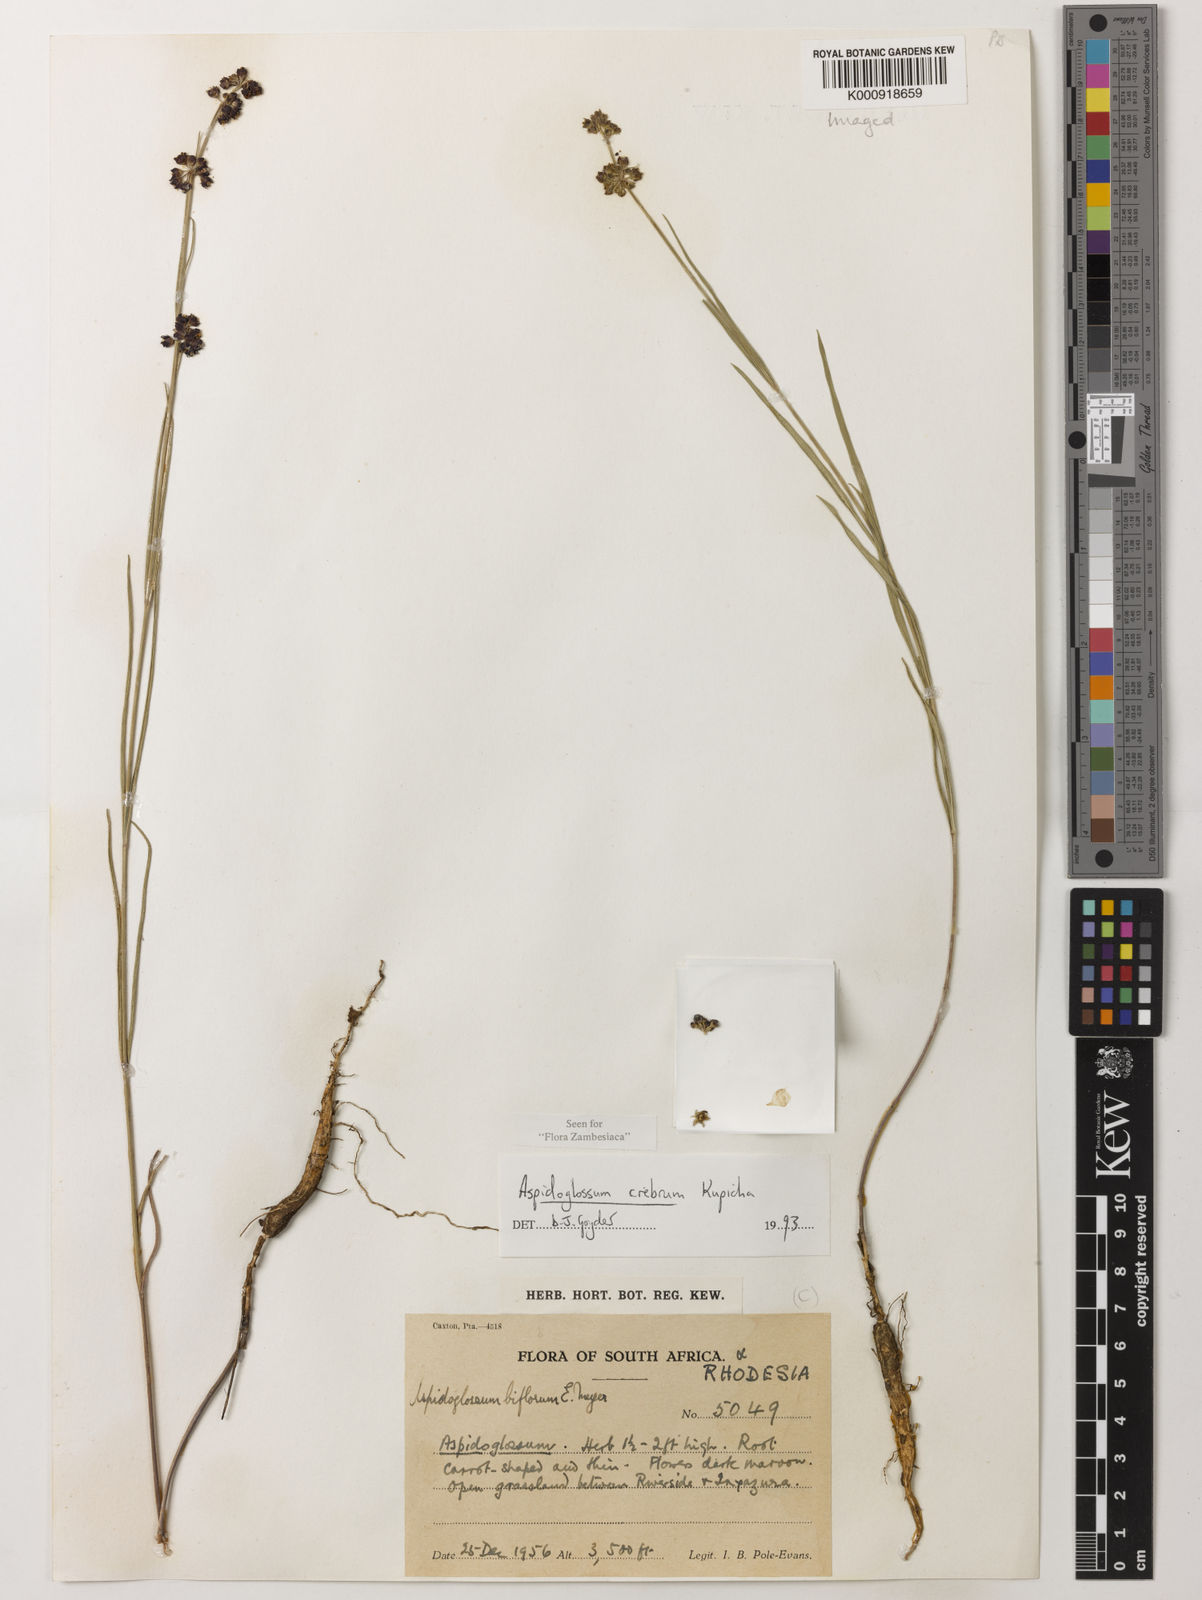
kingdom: Plantae
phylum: Tracheophyta
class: Magnoliopsida
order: Gentianales
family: Apocynaceae
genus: Aspidoglossum
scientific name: Aspidoglossum crebrum
